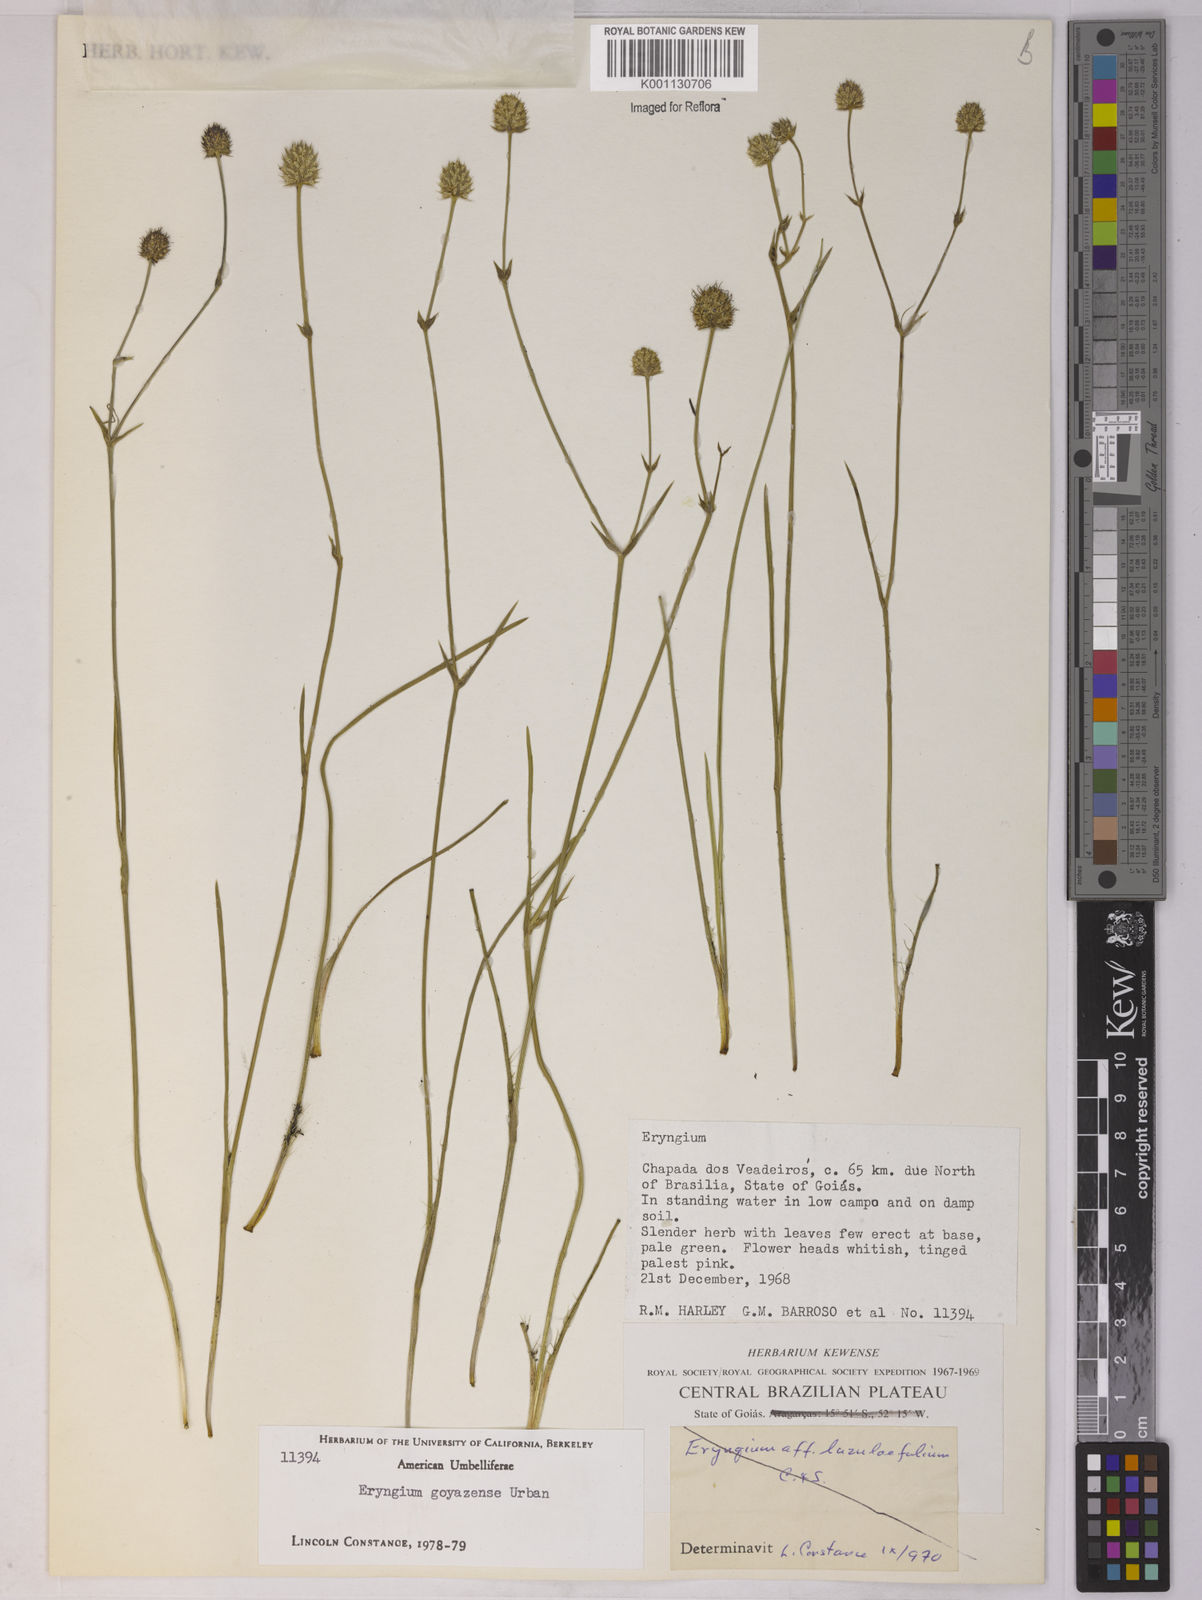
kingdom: Plantae
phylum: Tracheophyta
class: Magnoliopsida
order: Apiales
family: Apiaceae
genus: Eryngium
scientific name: Eryngium goyazense
